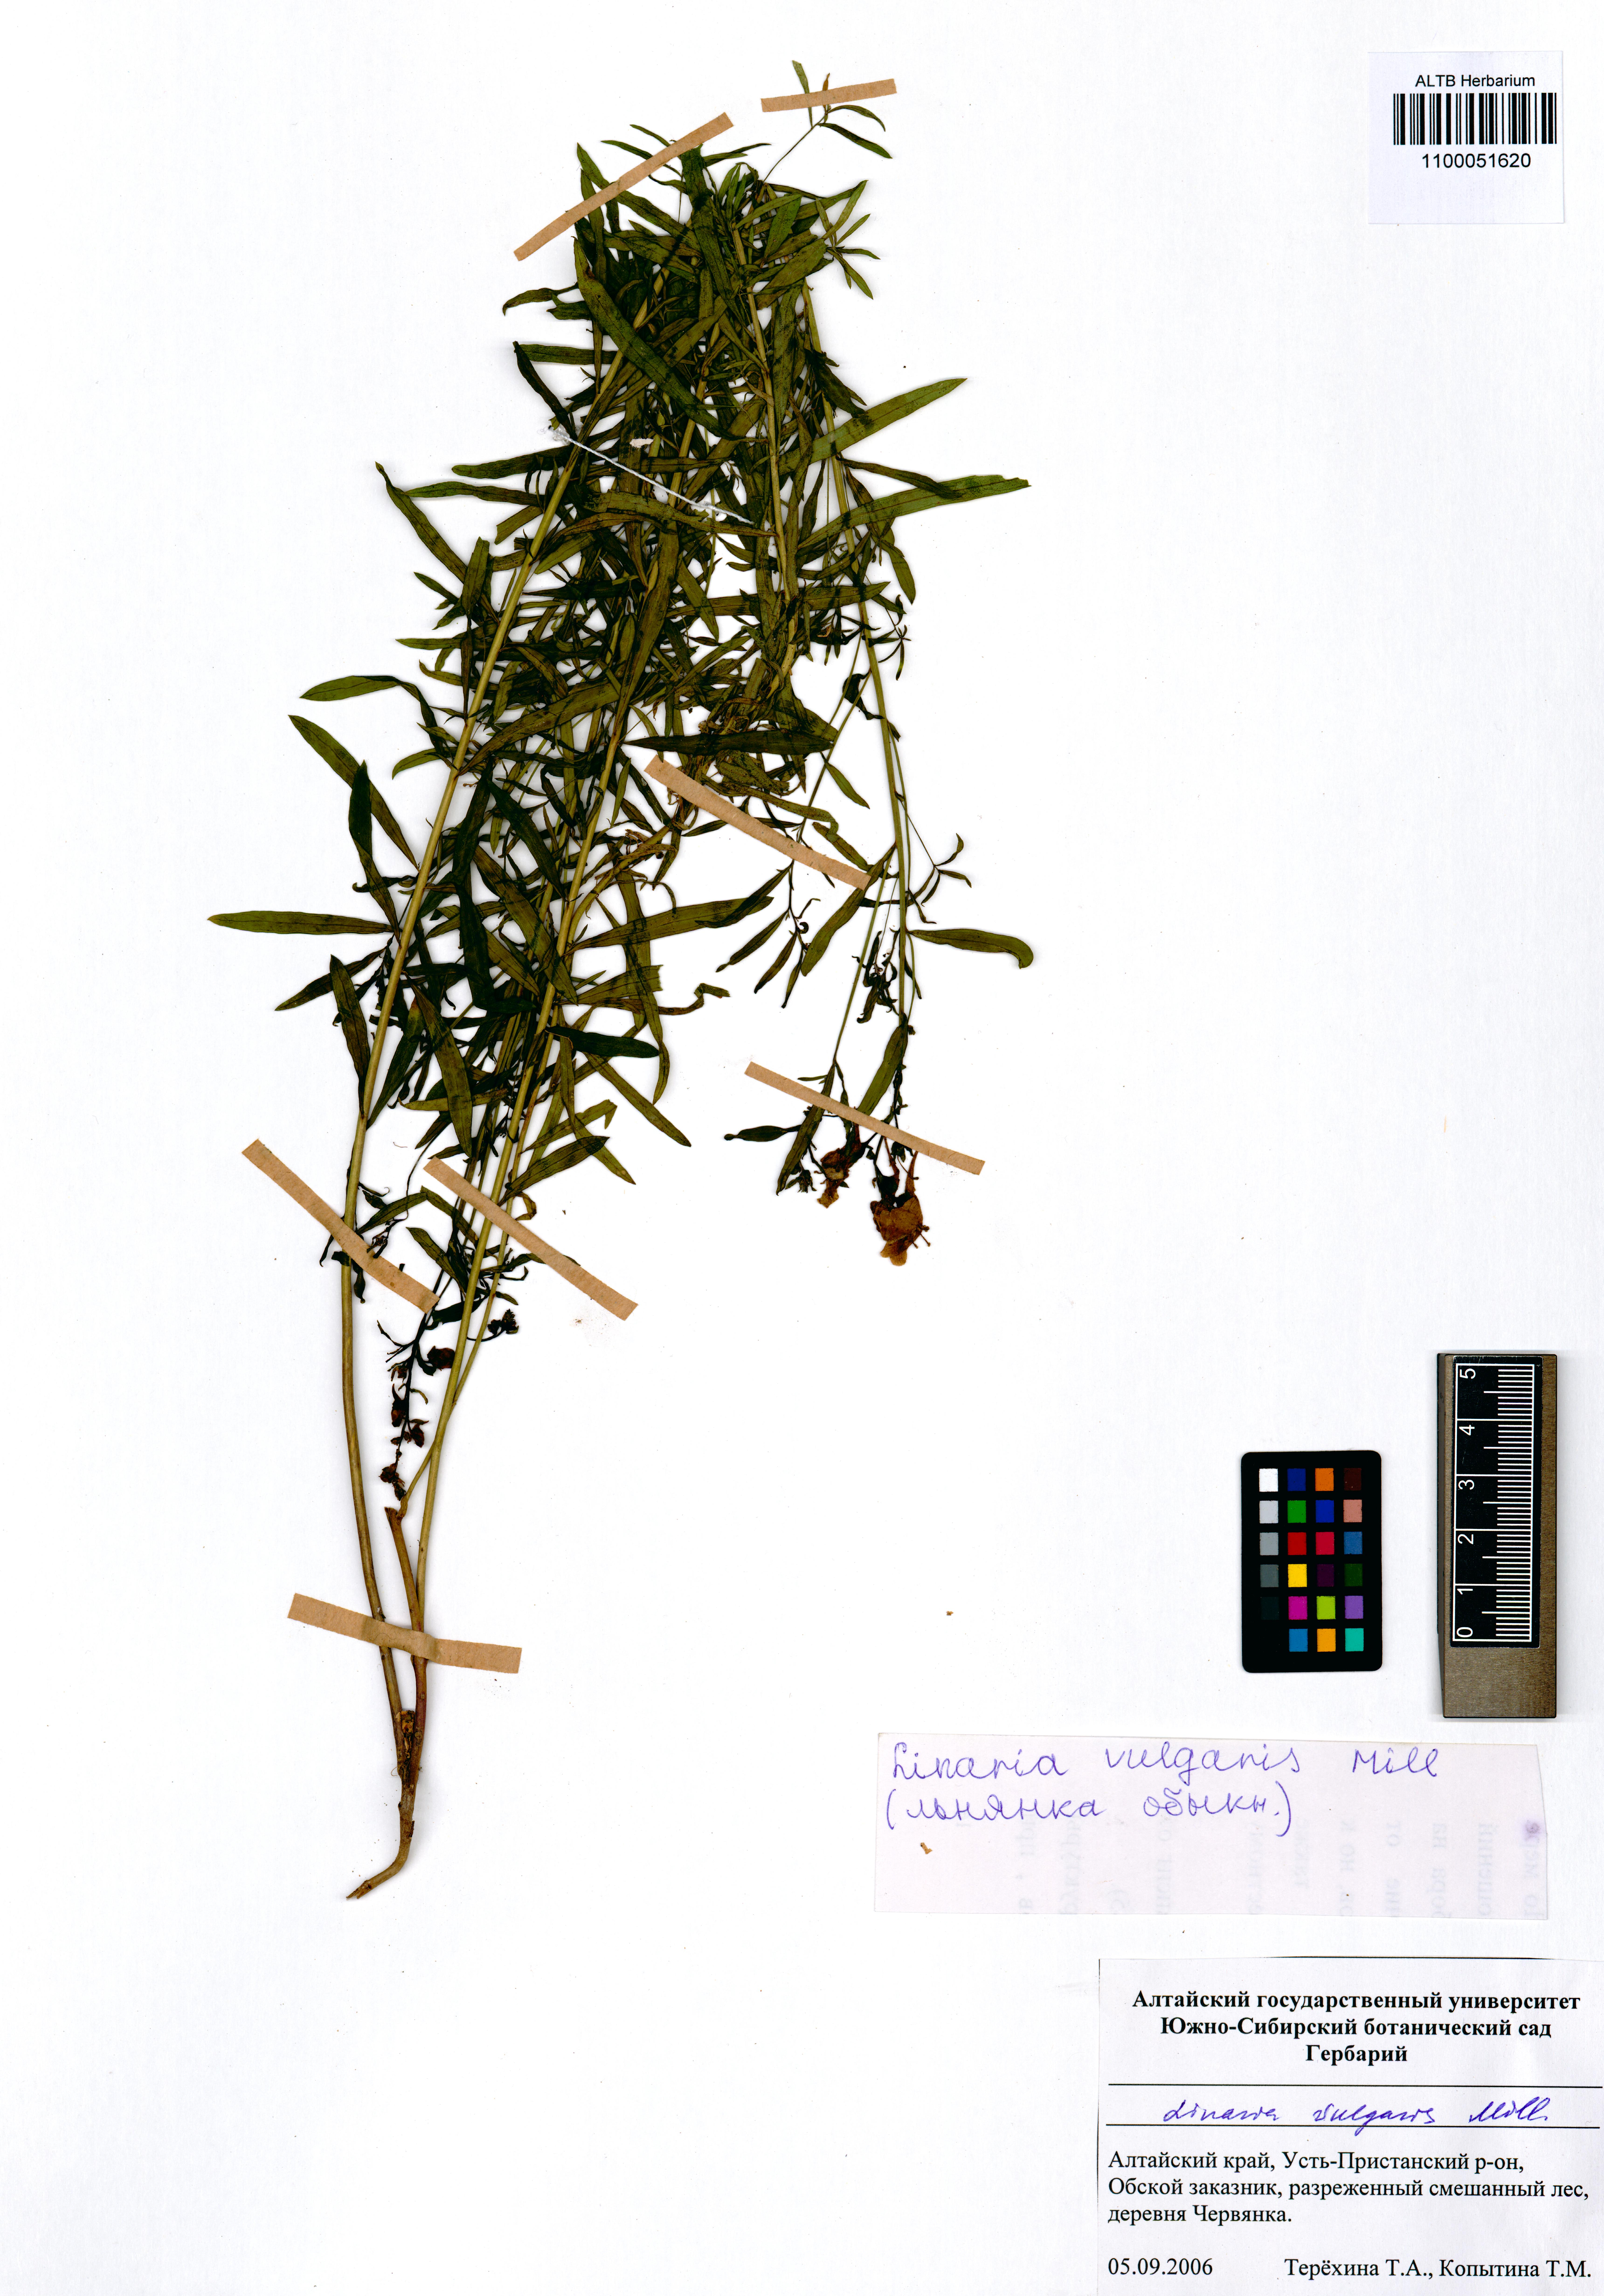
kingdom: Plantae
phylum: Tracheophyta
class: Magnoliopsida
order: Lamiales
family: Plantaginaceae
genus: Linaria
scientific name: Linaria vulgaris
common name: Butter and eggs
